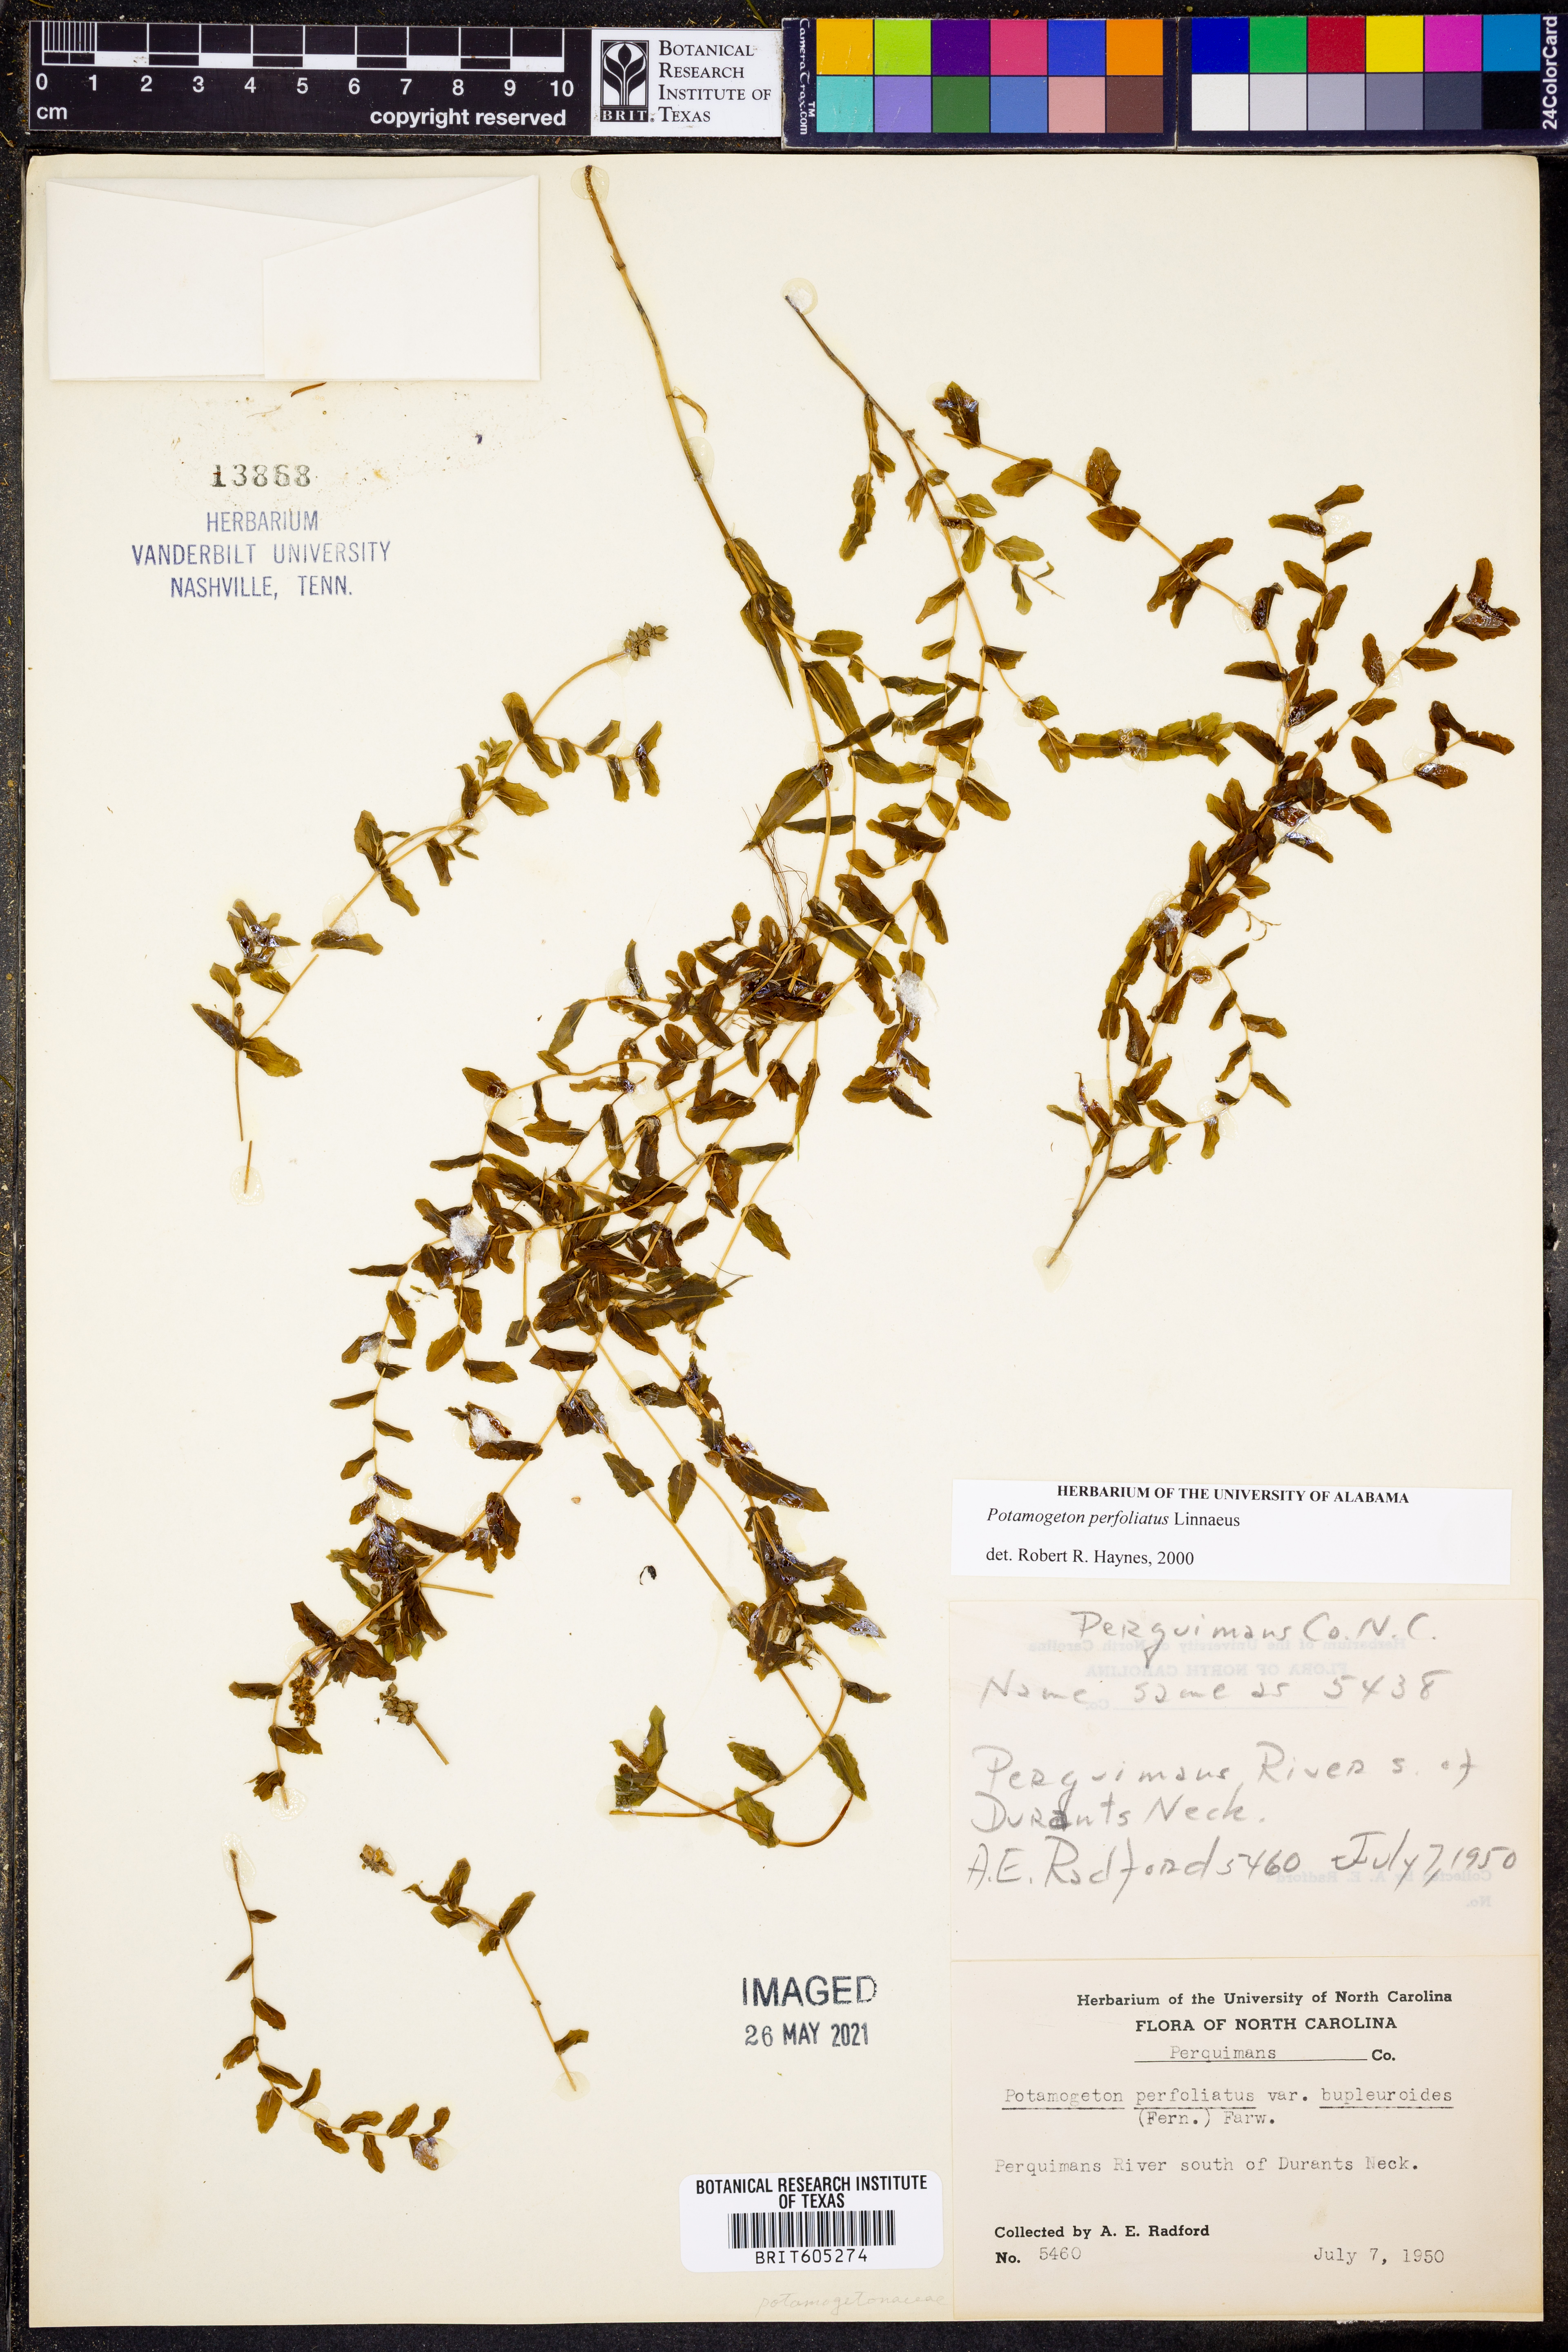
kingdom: Plantae
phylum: Tracheophyta
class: Liliopsida
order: Alismatales
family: Potamogetonaceae
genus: Potamogeton
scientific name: Potamogeton perfoliatus
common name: Perfoliate pondweed
